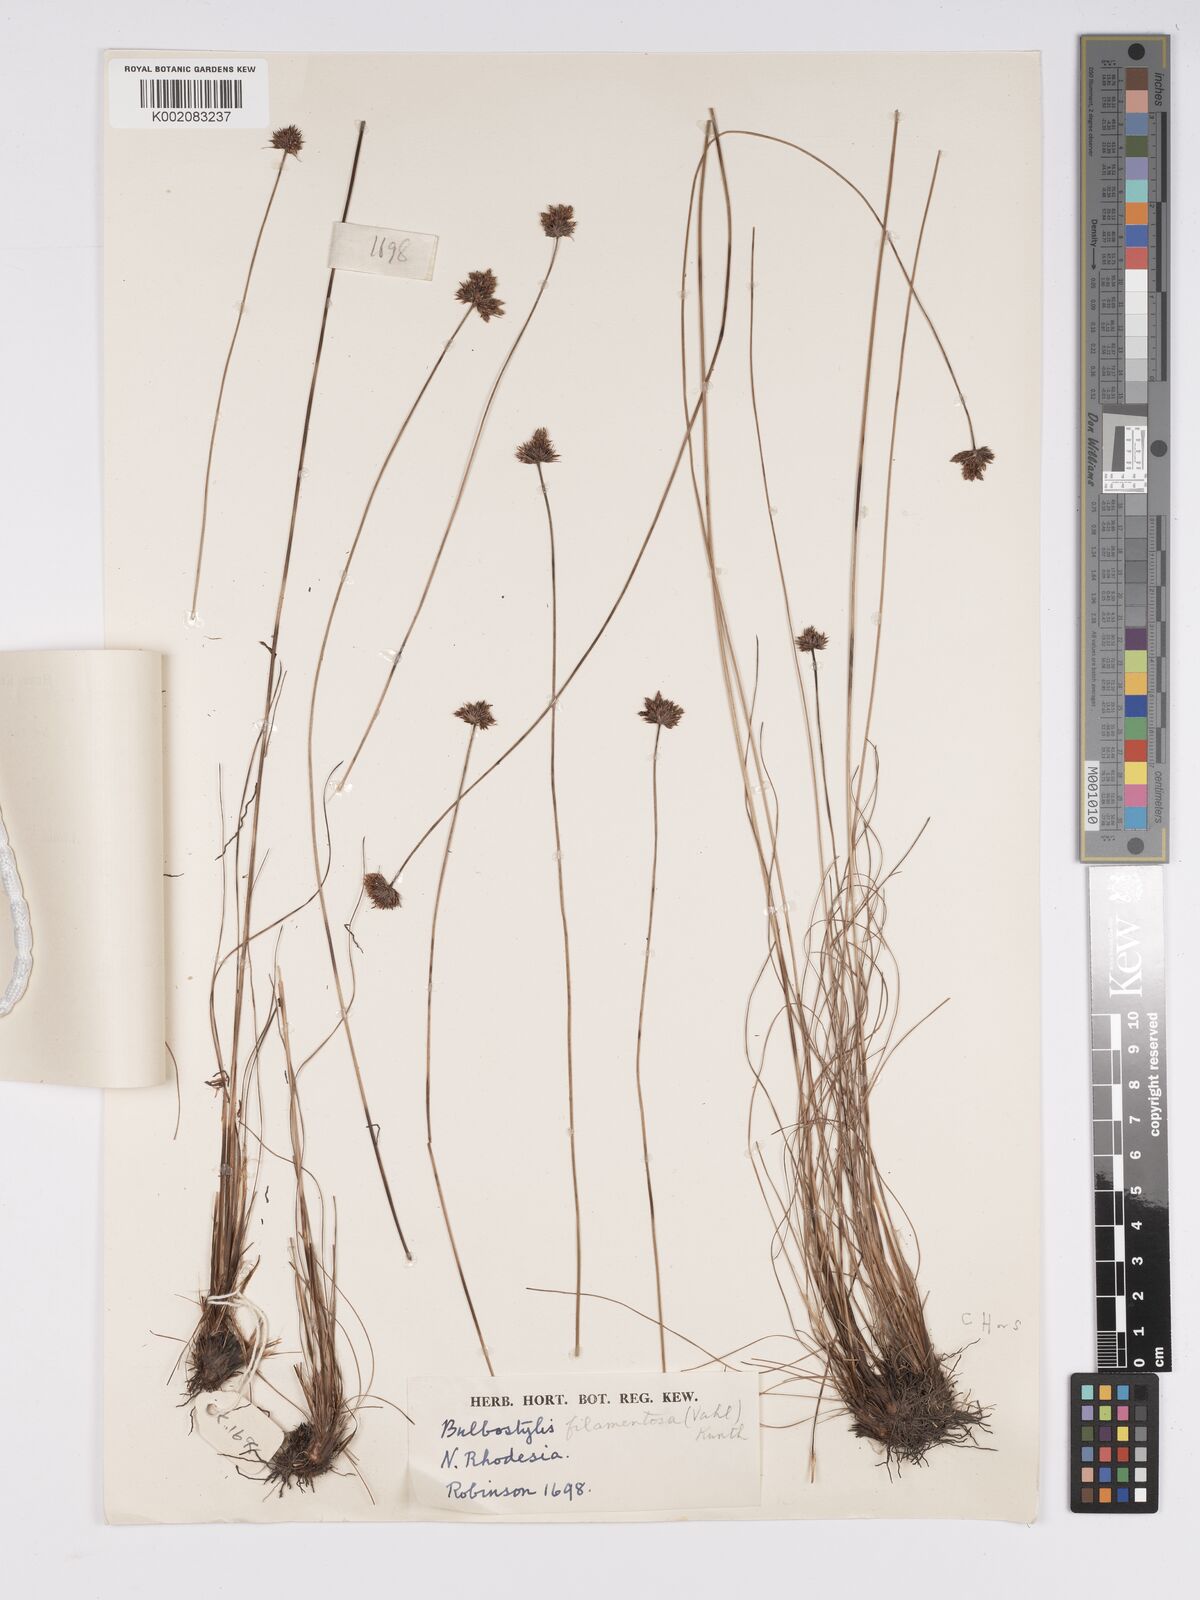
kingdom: Plantae
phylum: Tracheophyta
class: Liliopsida
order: Poales
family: Cyperaceae
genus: Bulbostylis
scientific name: Bulbostylis filamentosa
